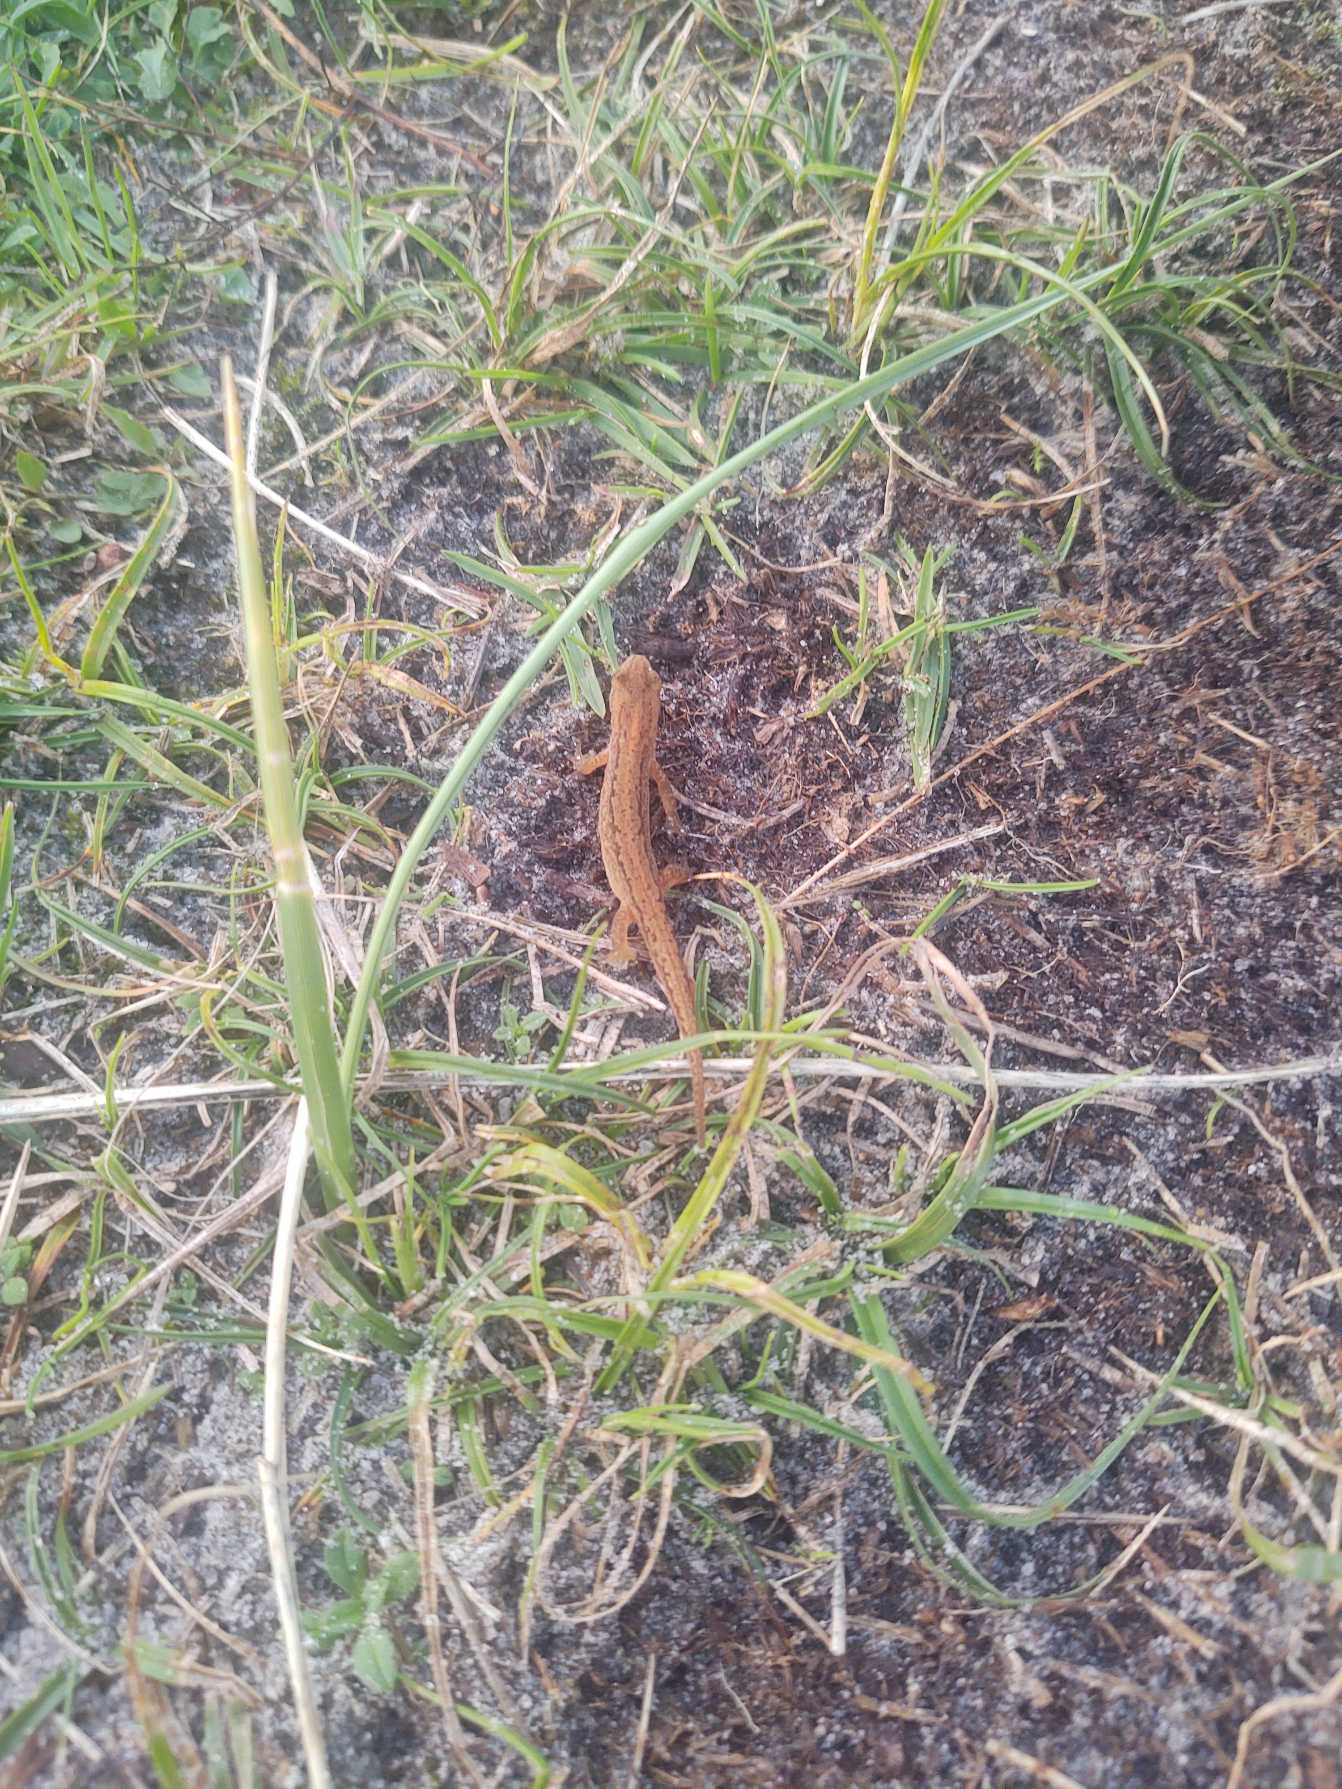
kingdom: Animalia
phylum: Chordata
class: Amphibia
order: Caudata
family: Salamandridae
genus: Lissotriton
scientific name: Lissotriton vulgaris
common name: Lille vandsalamander
